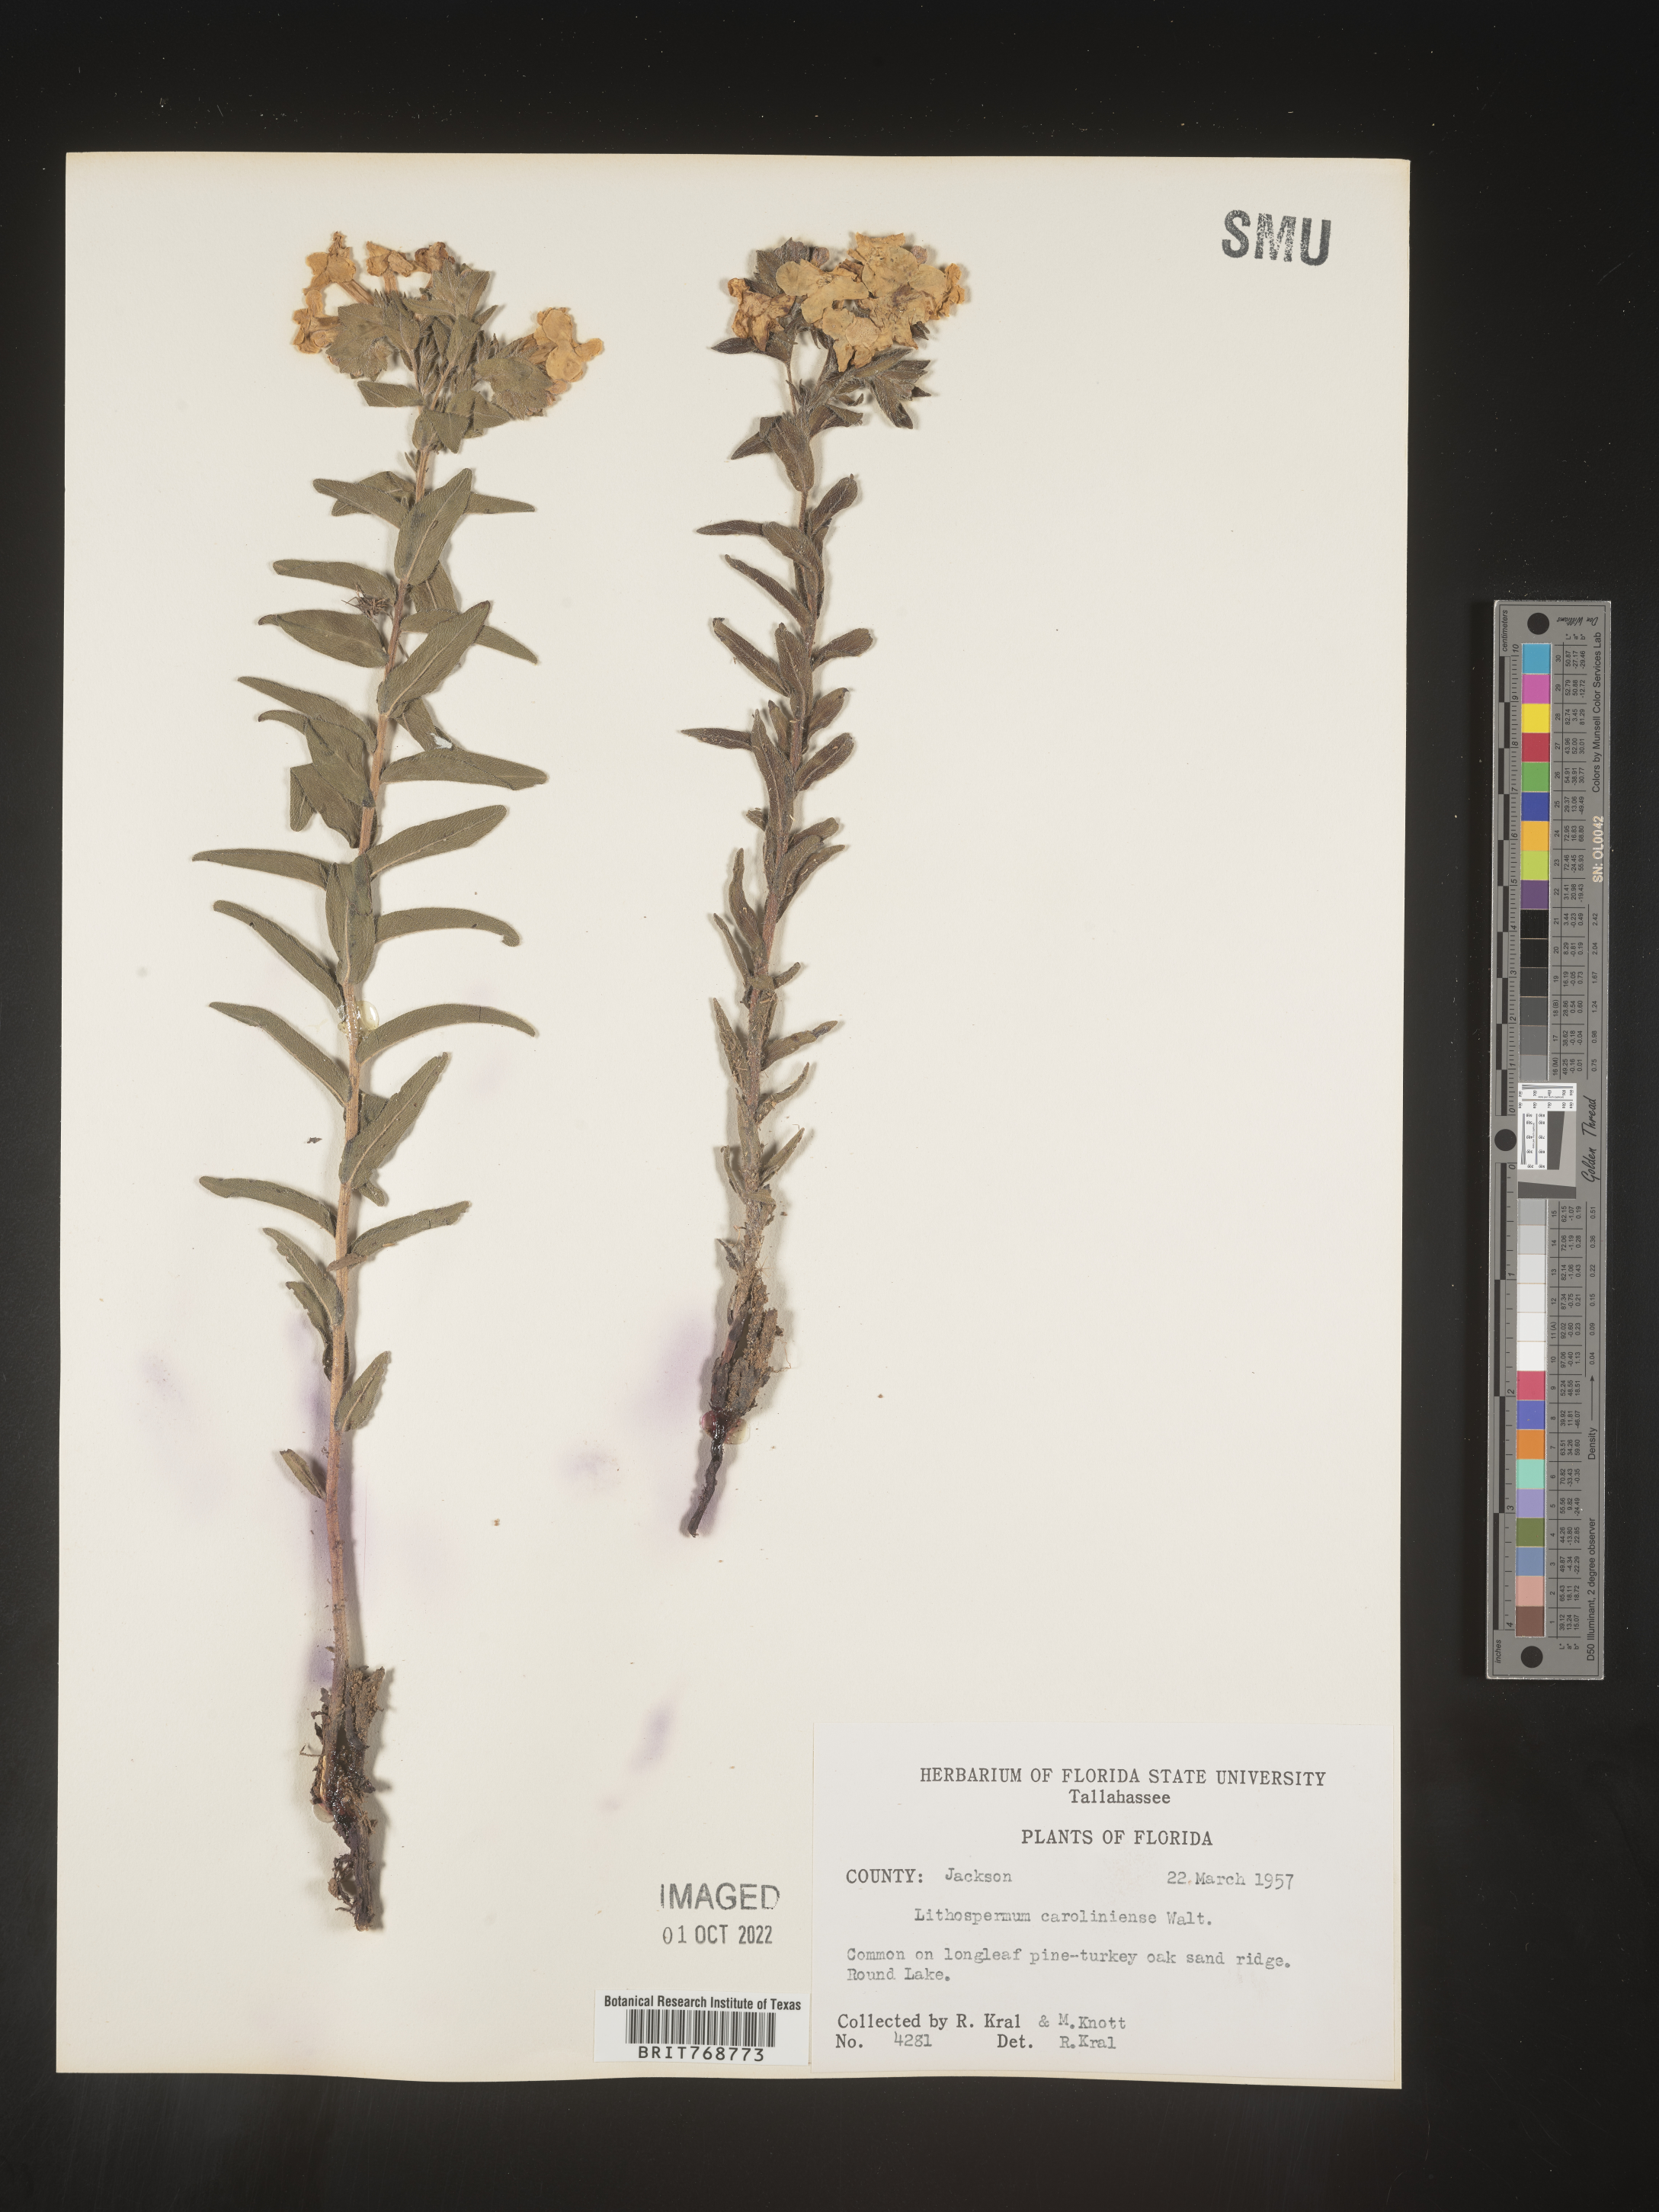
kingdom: Plantae
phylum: Tracheophyta
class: Magnoliopsida
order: Boraginales
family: Boraginaceae
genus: Lithospermum
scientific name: Lithospermum caroliniense
